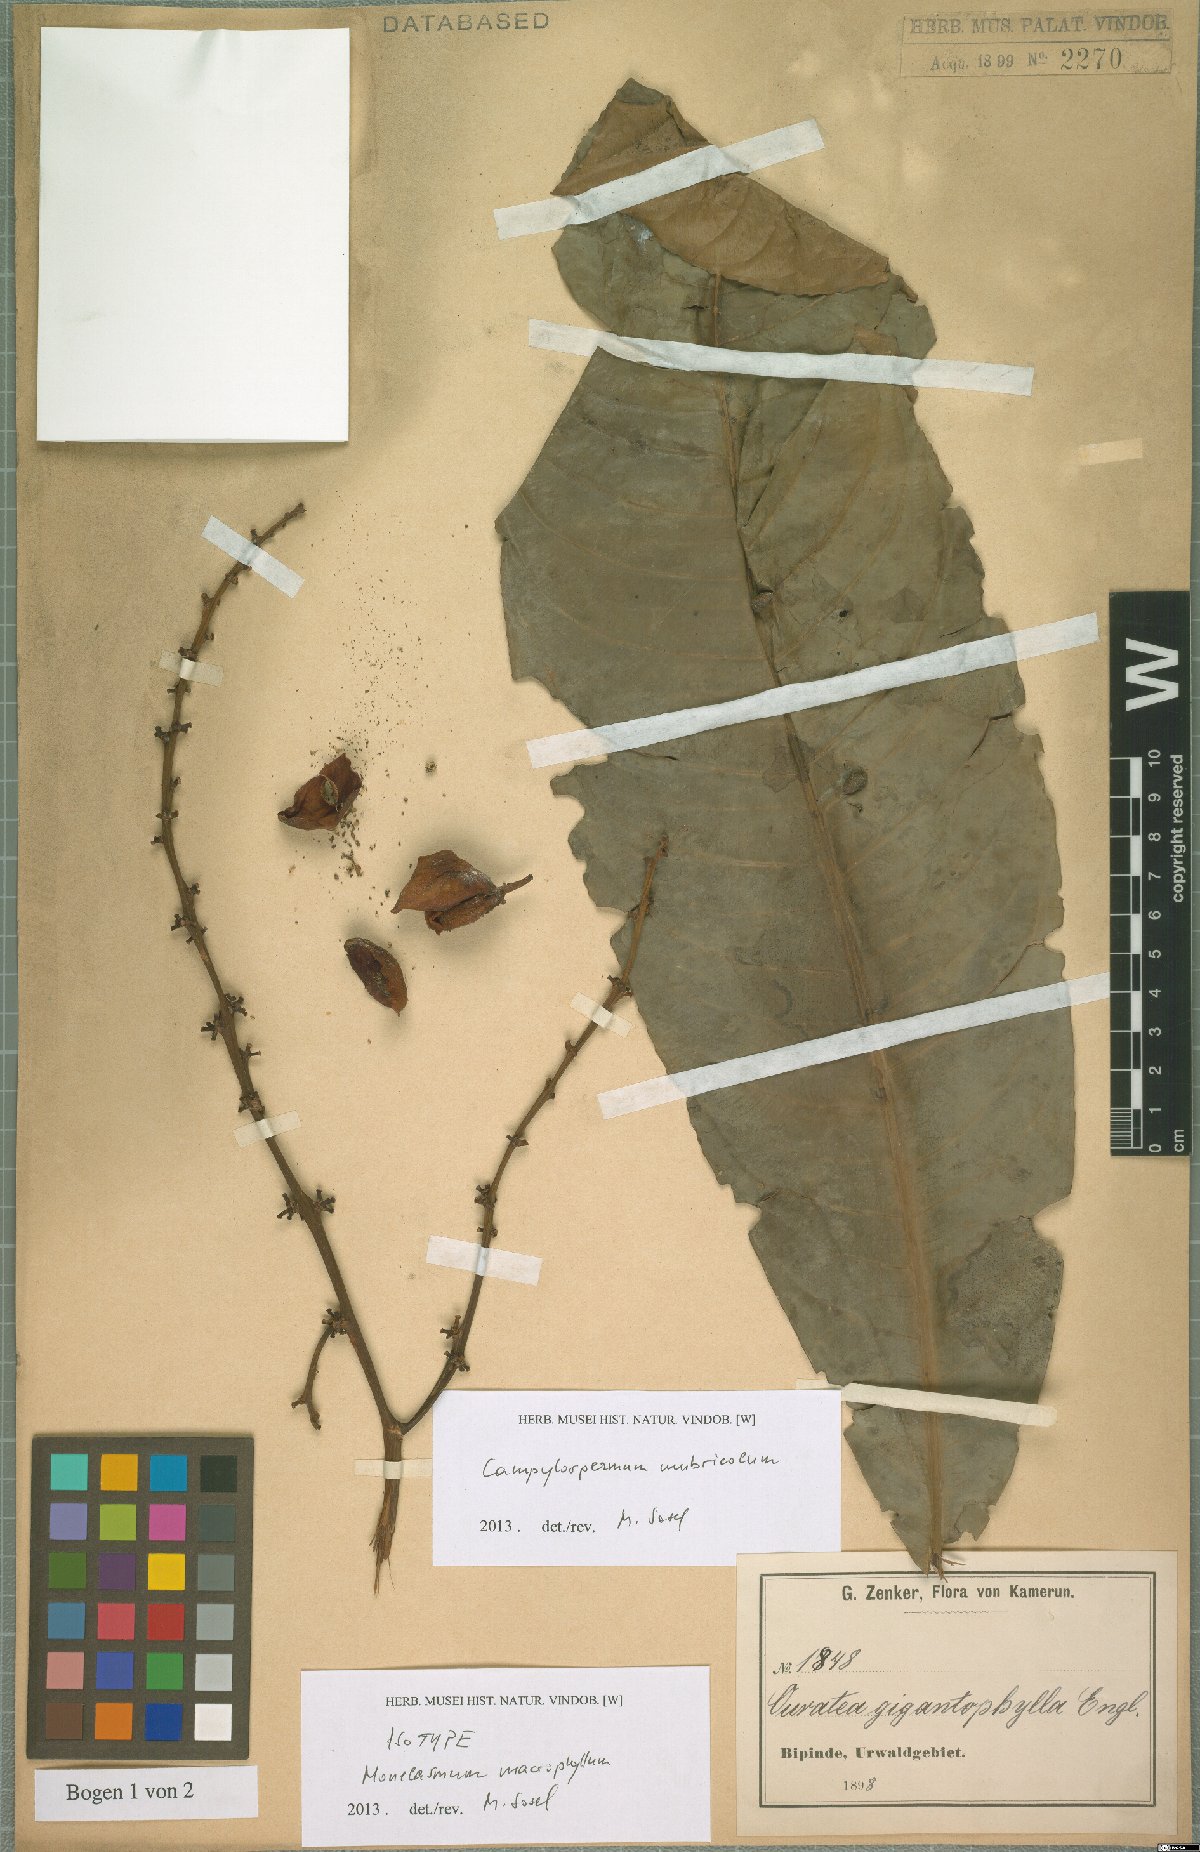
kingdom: Plantae
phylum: Tracheophyta
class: Magnoliopsida
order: Malpighiales
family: Ochnaceae
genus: Campylospermum
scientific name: Campylospermum umbricola
